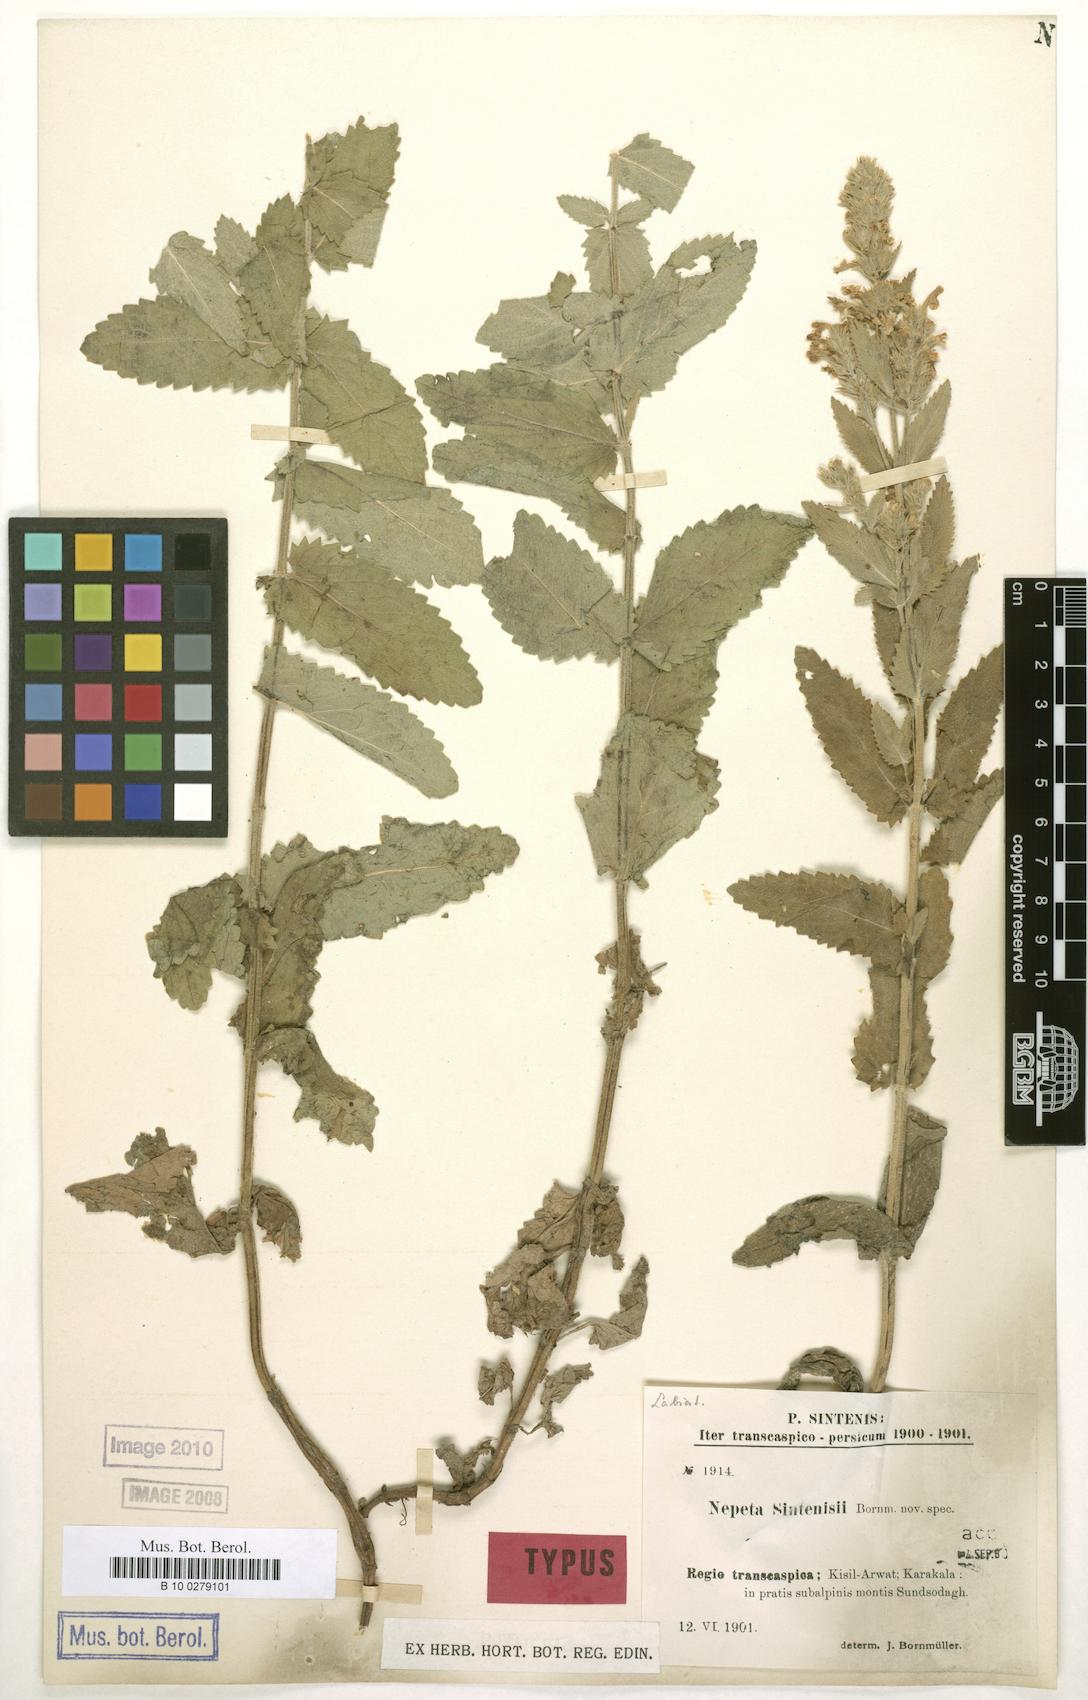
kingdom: Plantae
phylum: Tracheophyta
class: Magnoliopsida
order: Lamiales
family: Lamiaceae
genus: Nepeta
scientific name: Nepeta bodeana
